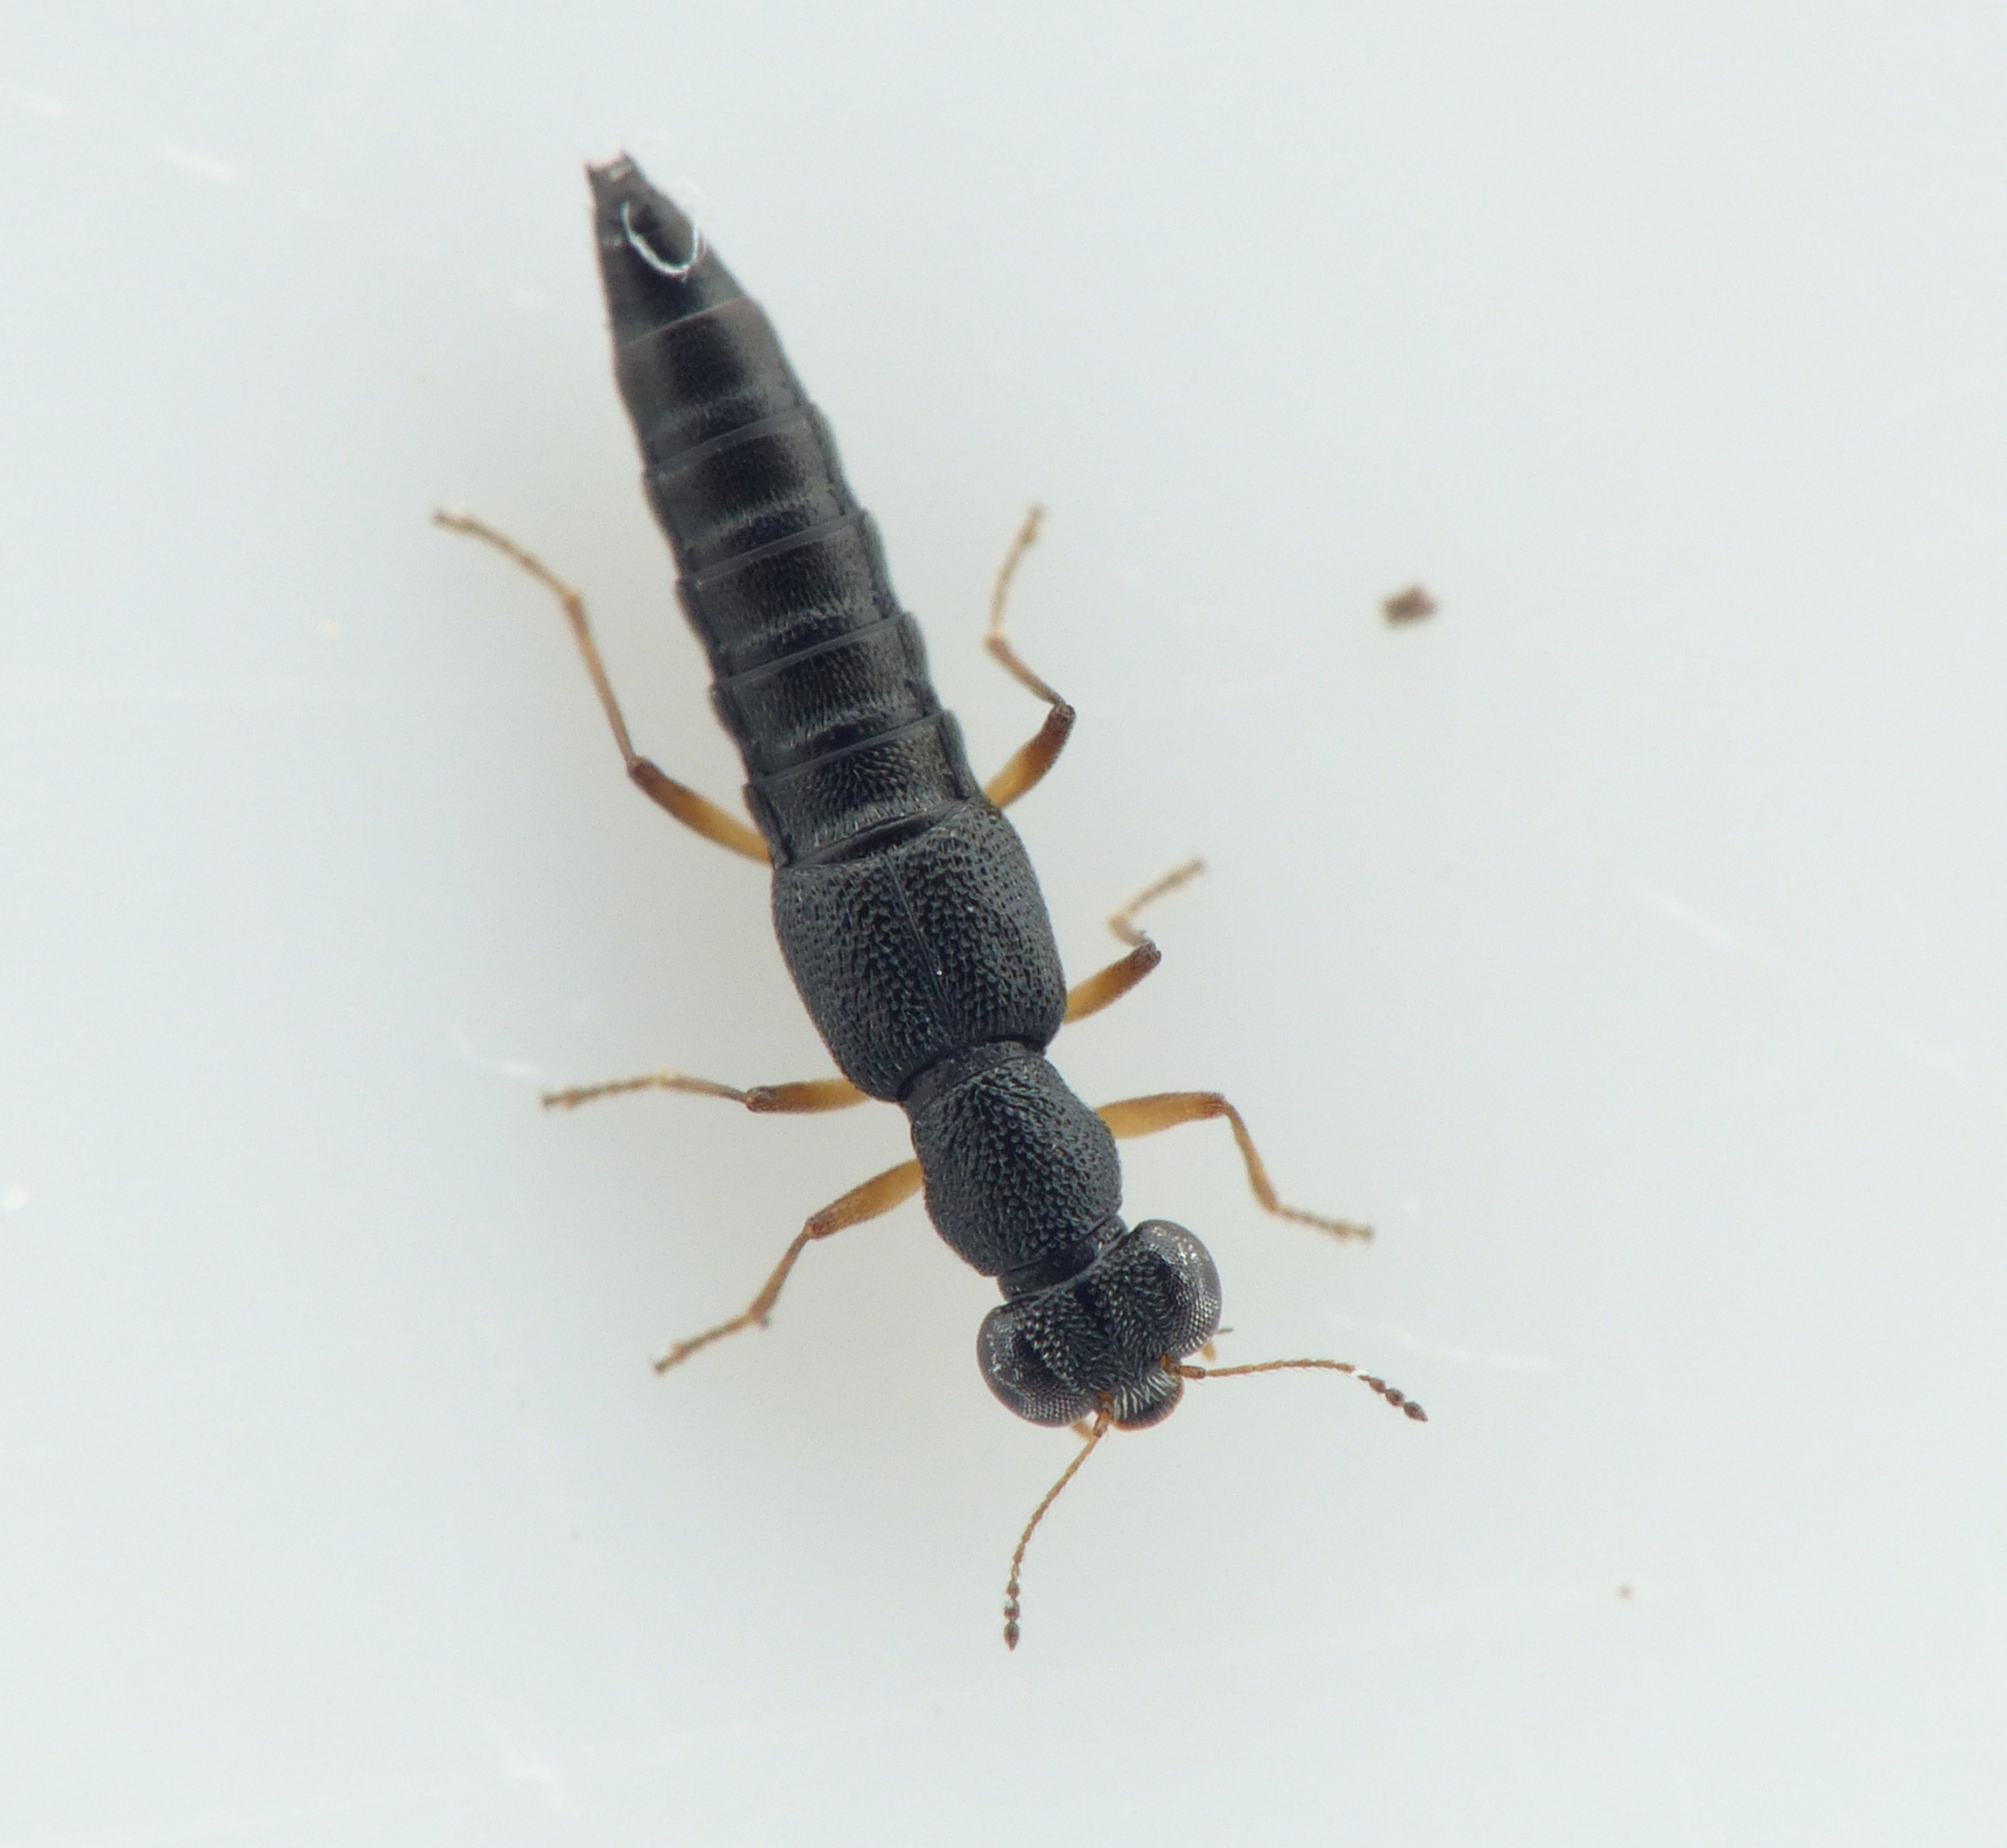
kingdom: Animalia
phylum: Arthropoda
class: Insecta
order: Coleoptera
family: Staphylinidae
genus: Stenus
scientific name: Stenus flavipalpis
